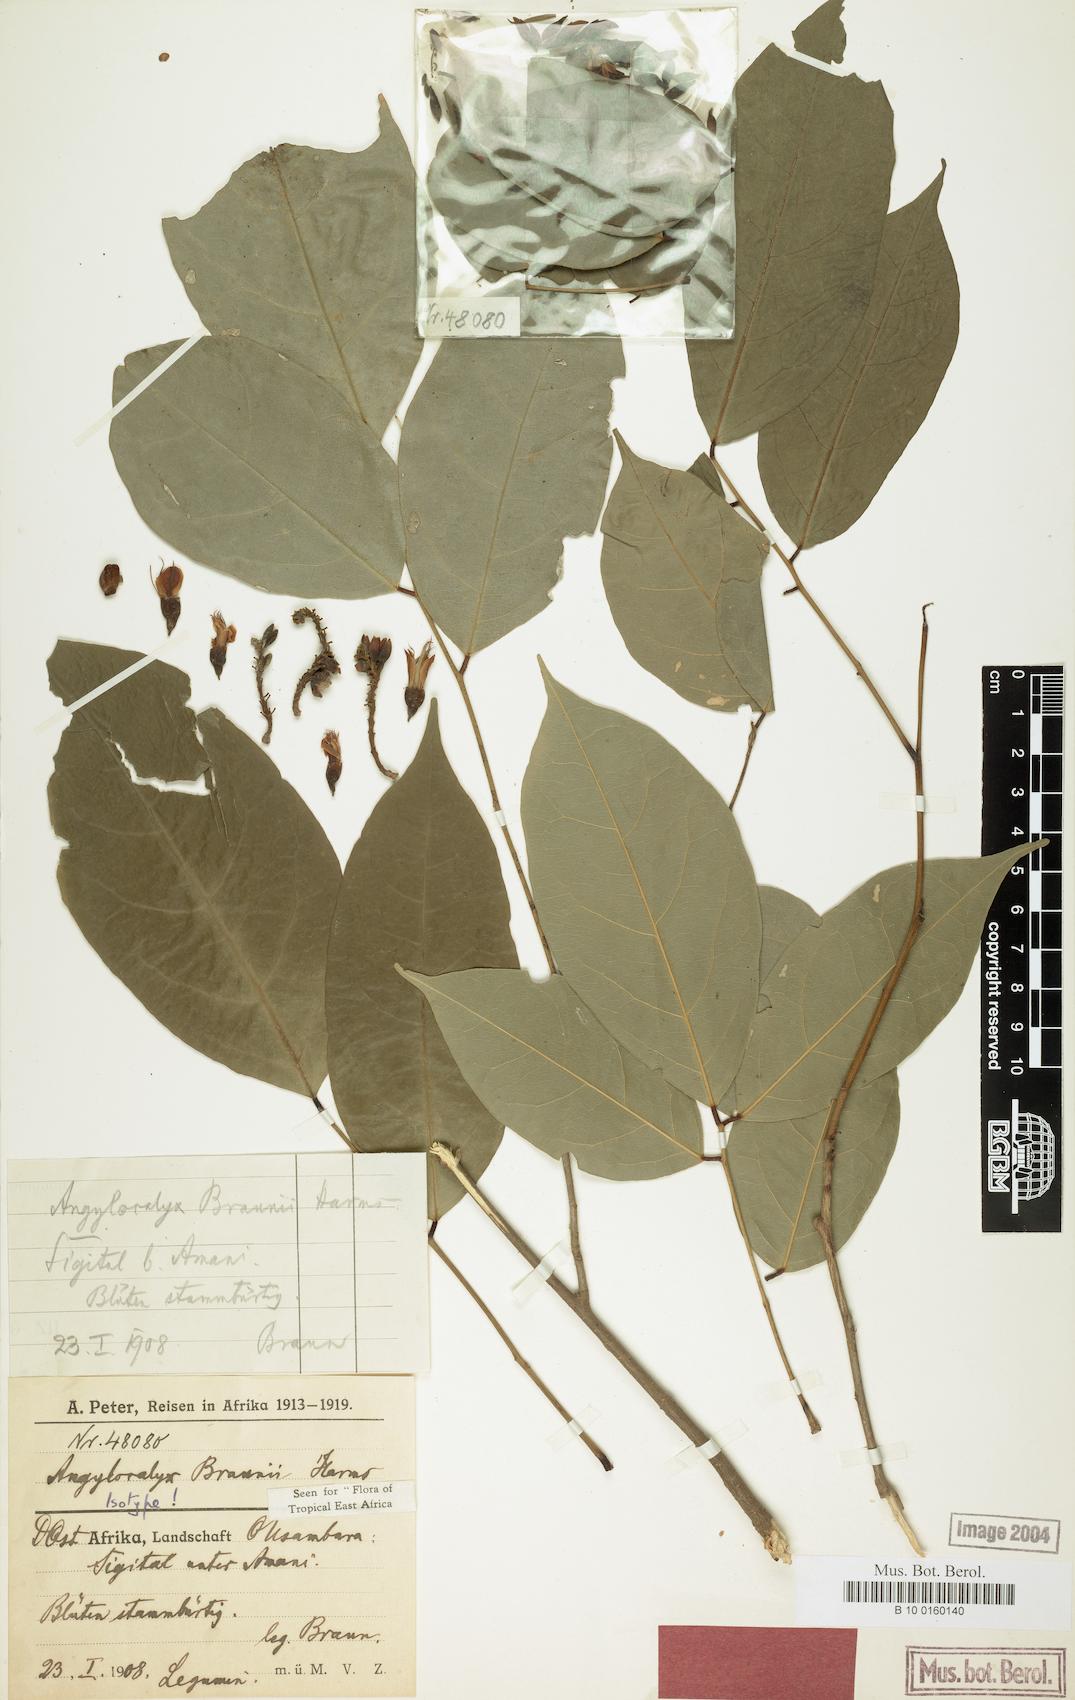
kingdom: Plantae
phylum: Tracheophyta
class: Magnoliopsida
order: Fabales
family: Fabaceae
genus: Angylocalyx
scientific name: Angylocalyx braunii
